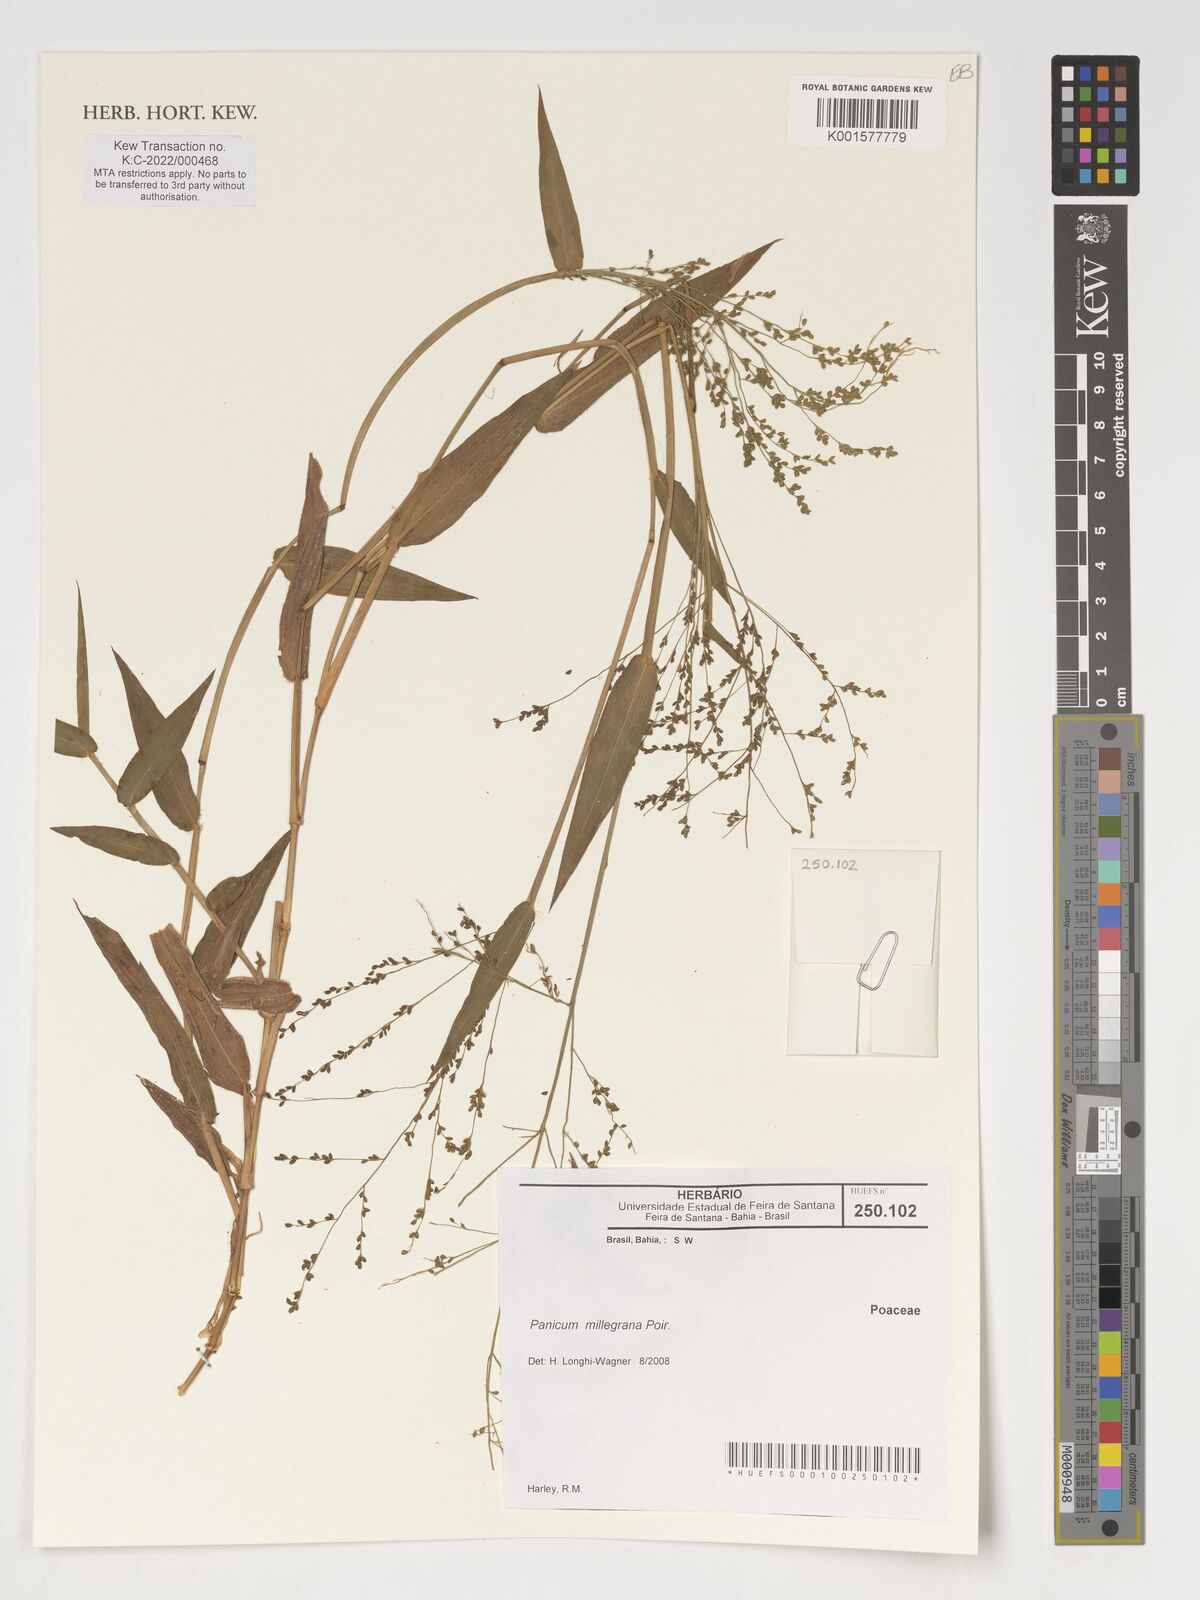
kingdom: Plantae
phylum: Tracheophyta
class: Liliopsida
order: Poales
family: Poaceae
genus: Panicum
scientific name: Panicum millegrana
